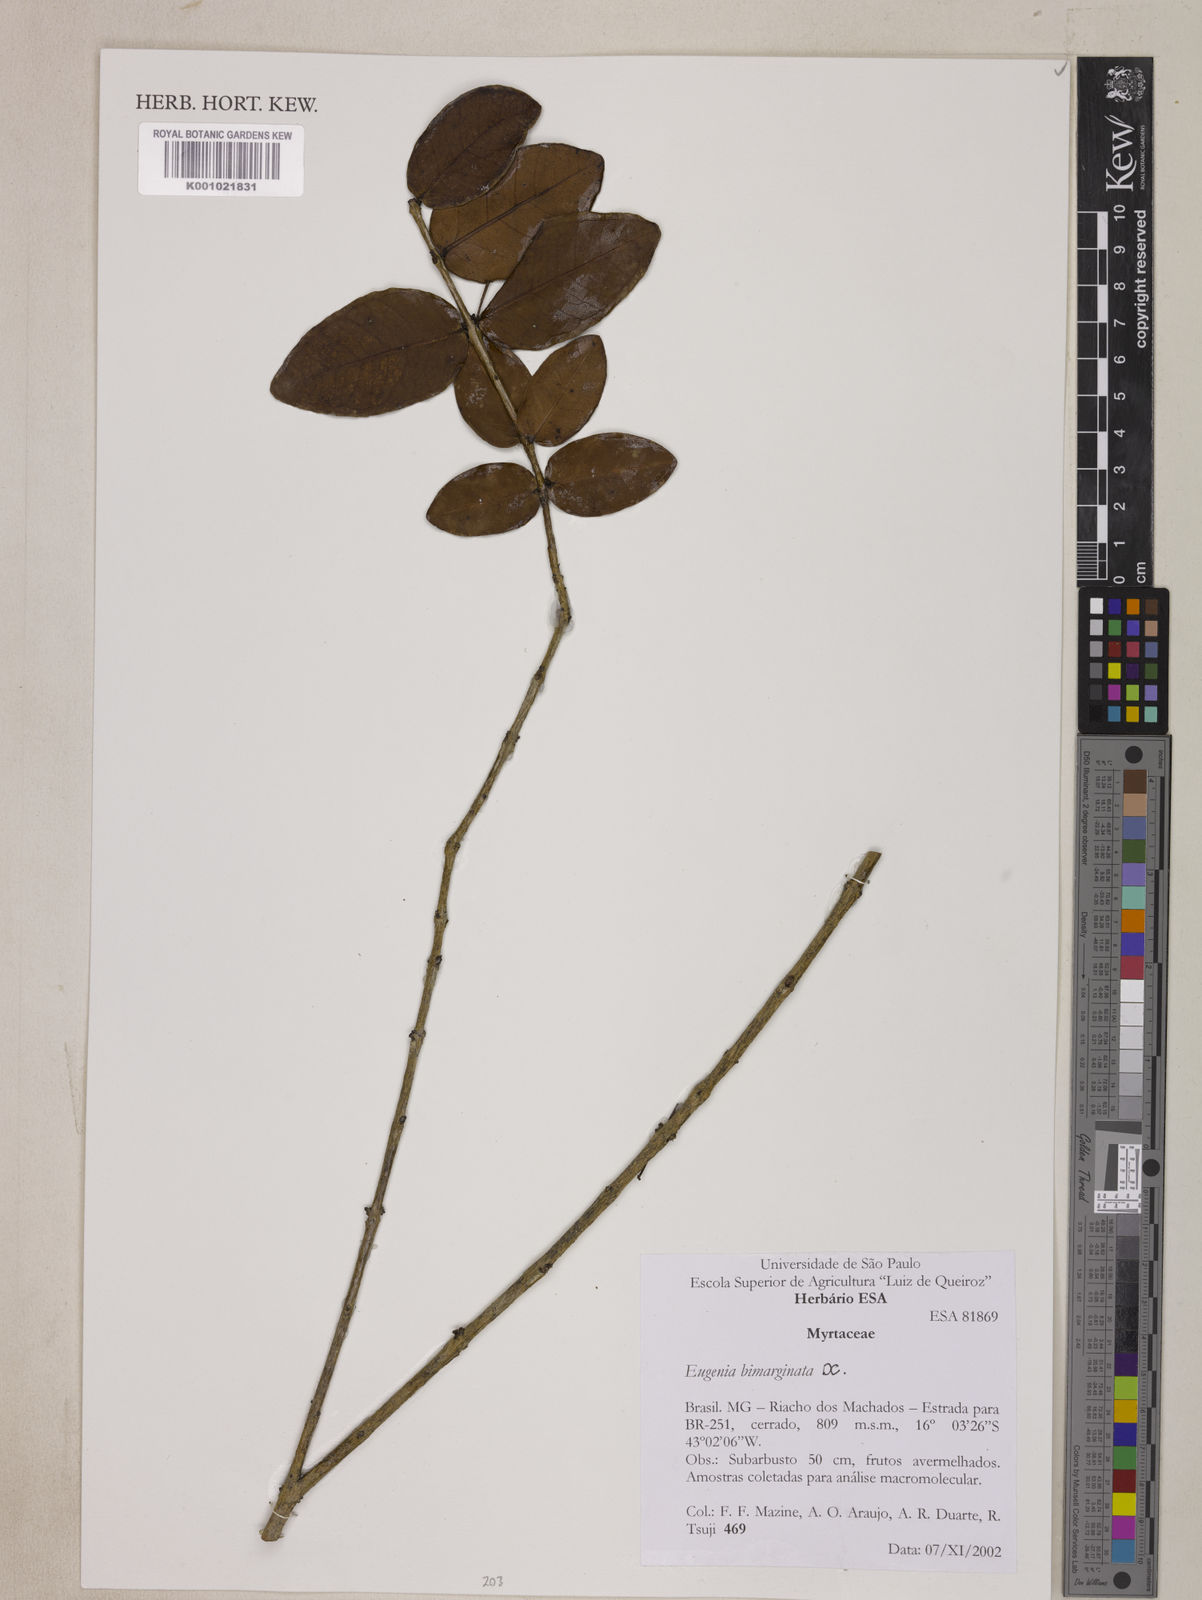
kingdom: Plantae
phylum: Tracheophyta
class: Magnoliopsida
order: Myrtales
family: Myrtaceae
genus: Eugenia
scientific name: Eugenia bimarginata
